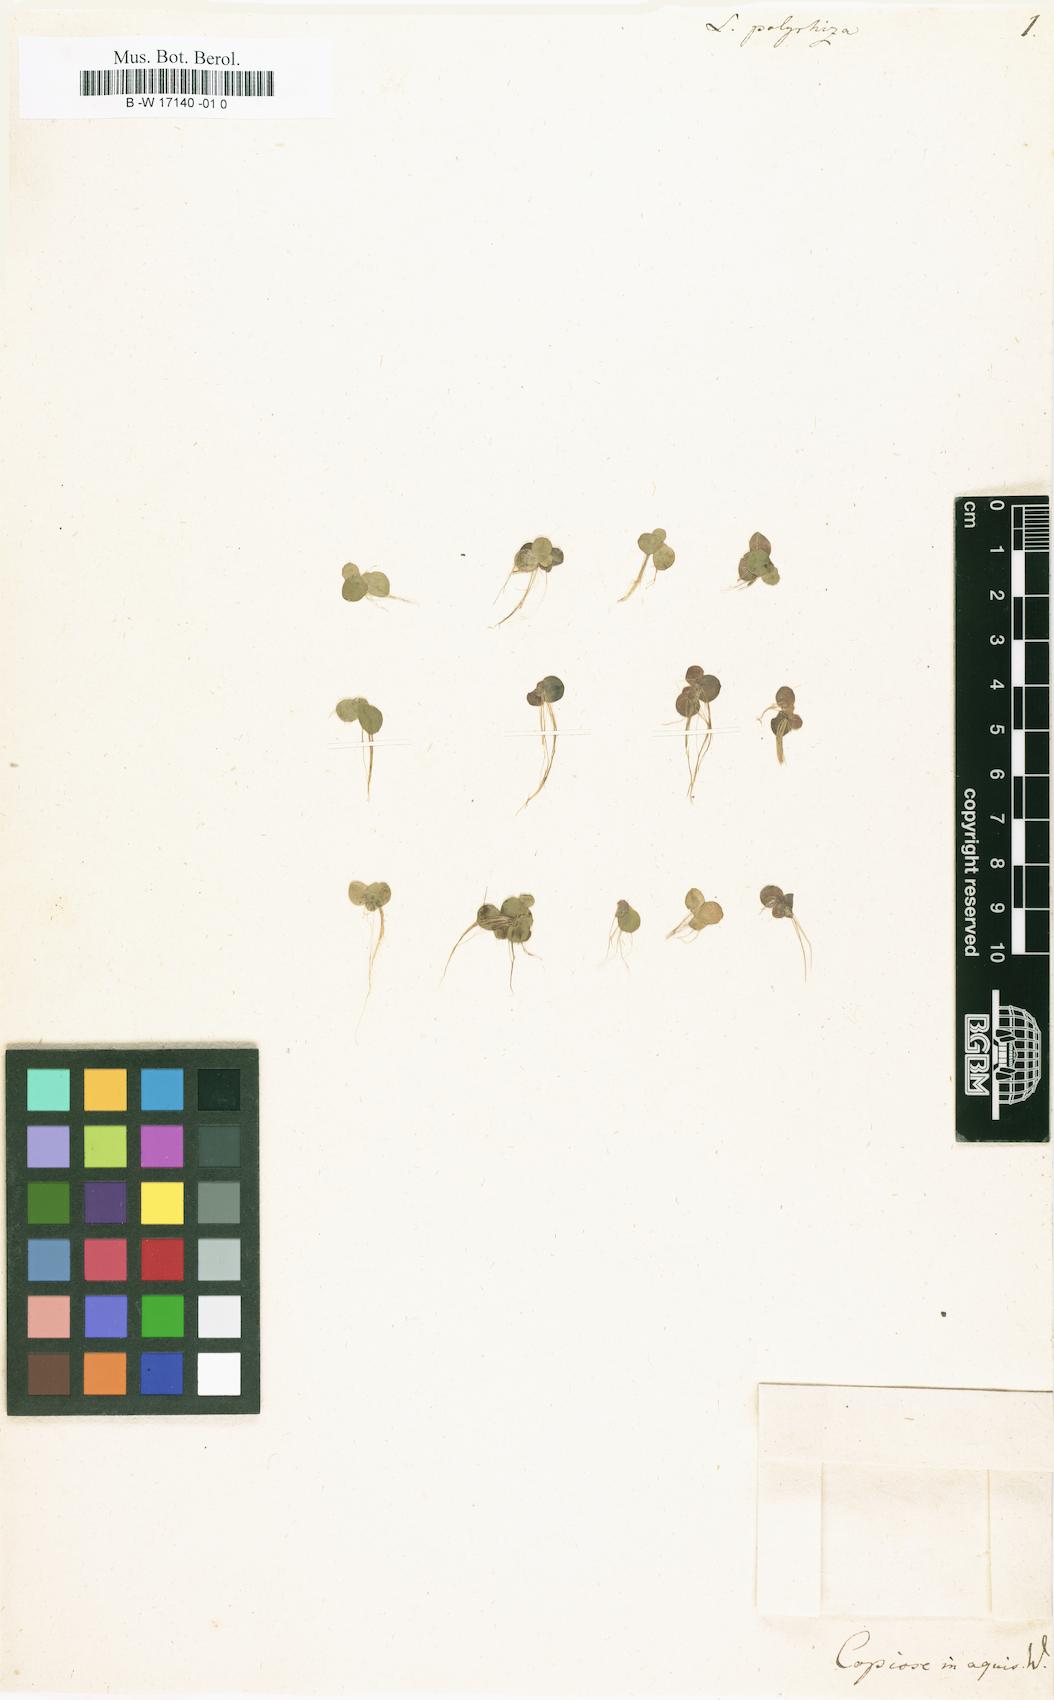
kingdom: Plantae
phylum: Tracheophyta
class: Liliopsida
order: Alismatales
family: Araceae
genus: Spirodela
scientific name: Spirodela polyrhiza
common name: Great duckweed
